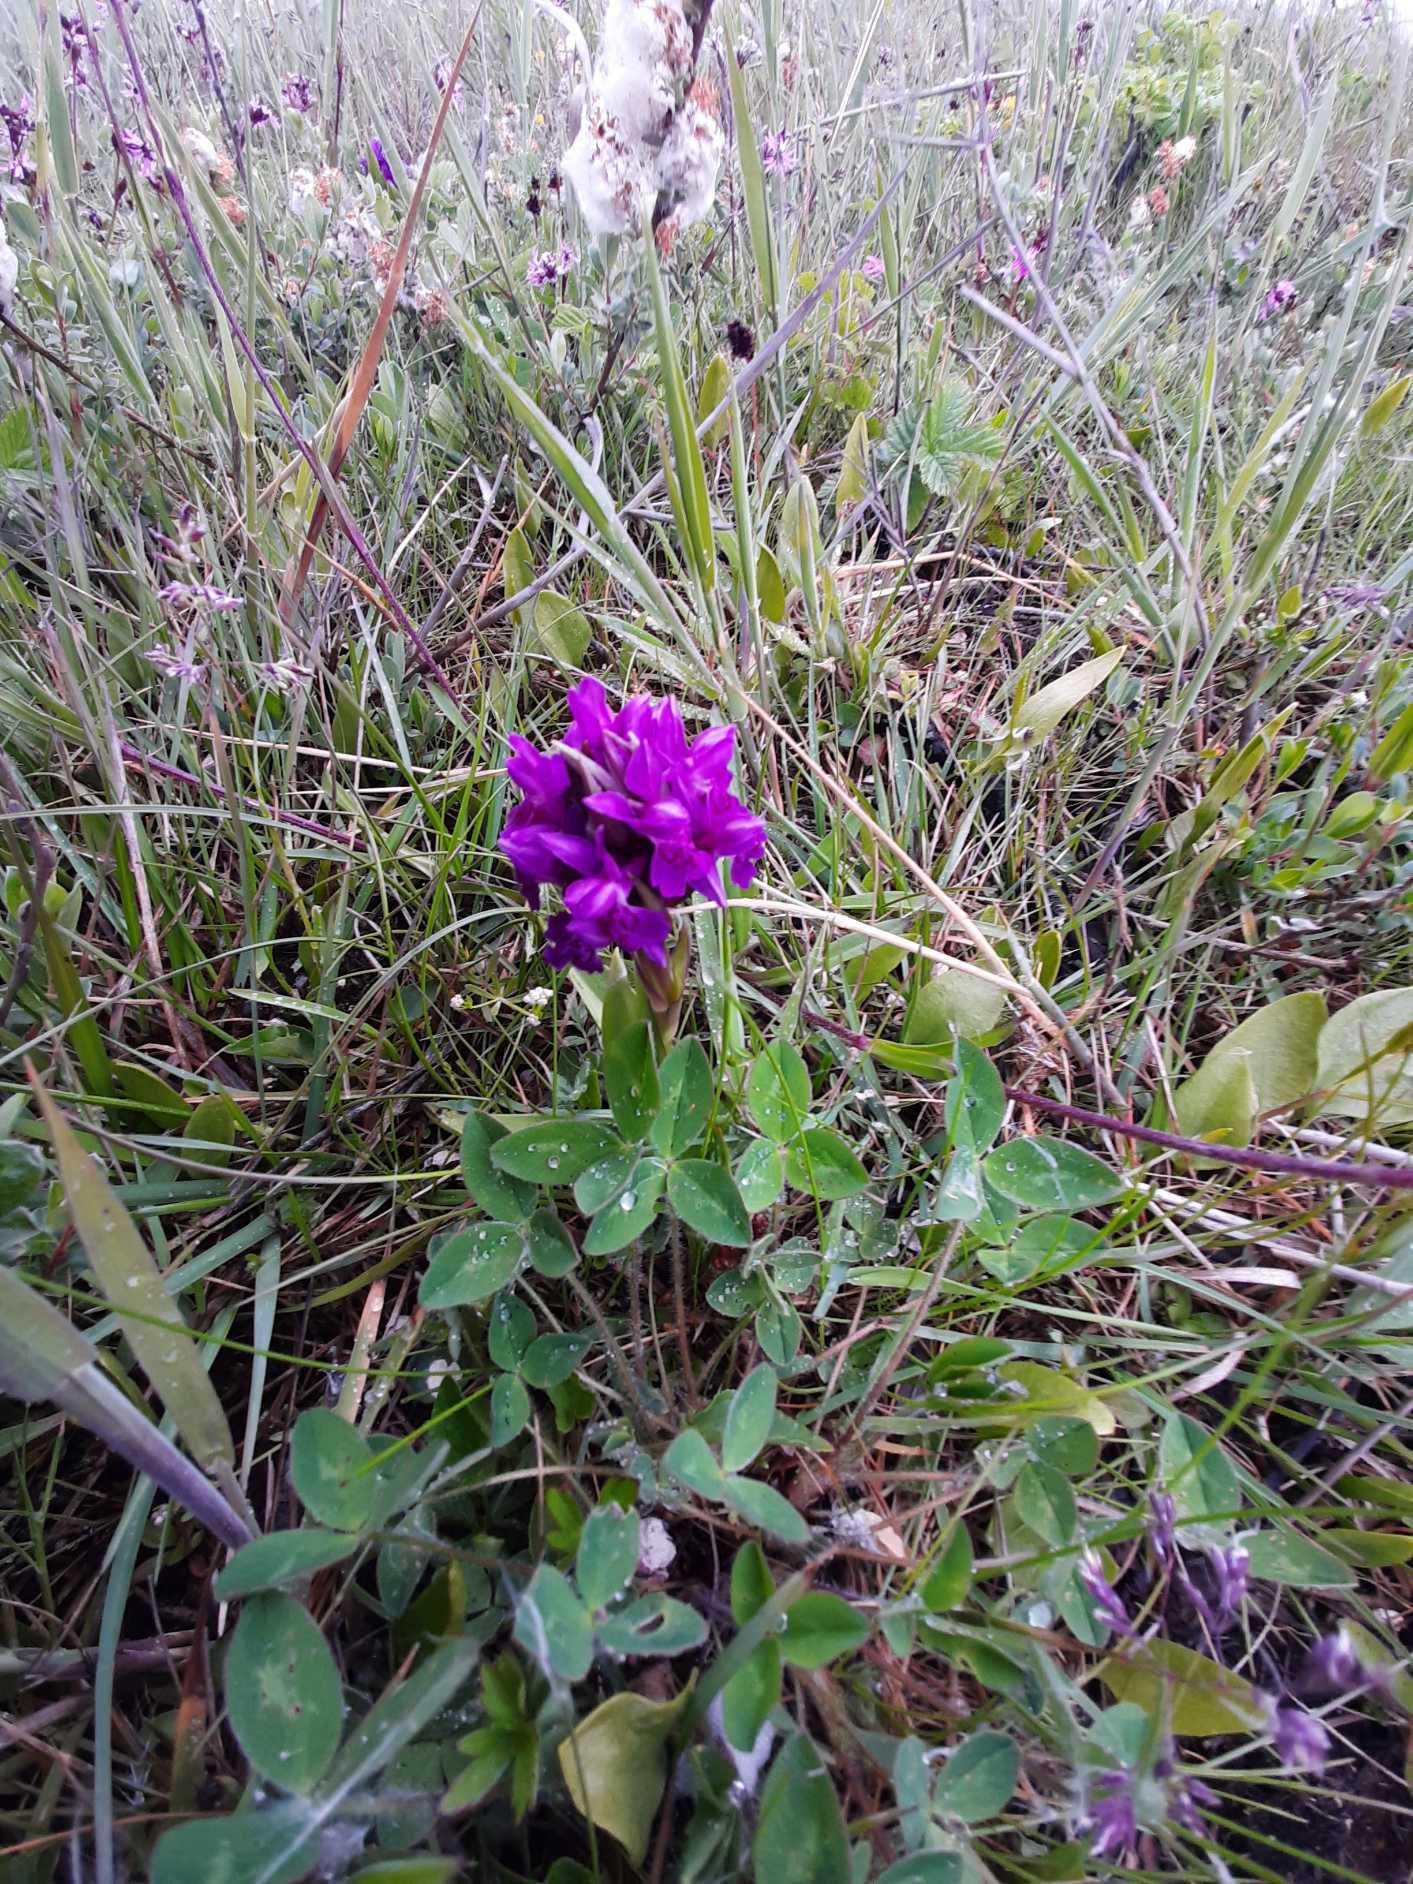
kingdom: Plantae
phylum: Tracheophyta
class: Liliopsida
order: Asparagales
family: Orchidaceae
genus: Dactylorhiza
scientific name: Dactylorhiza majalis
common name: Maj-gøgeurt
